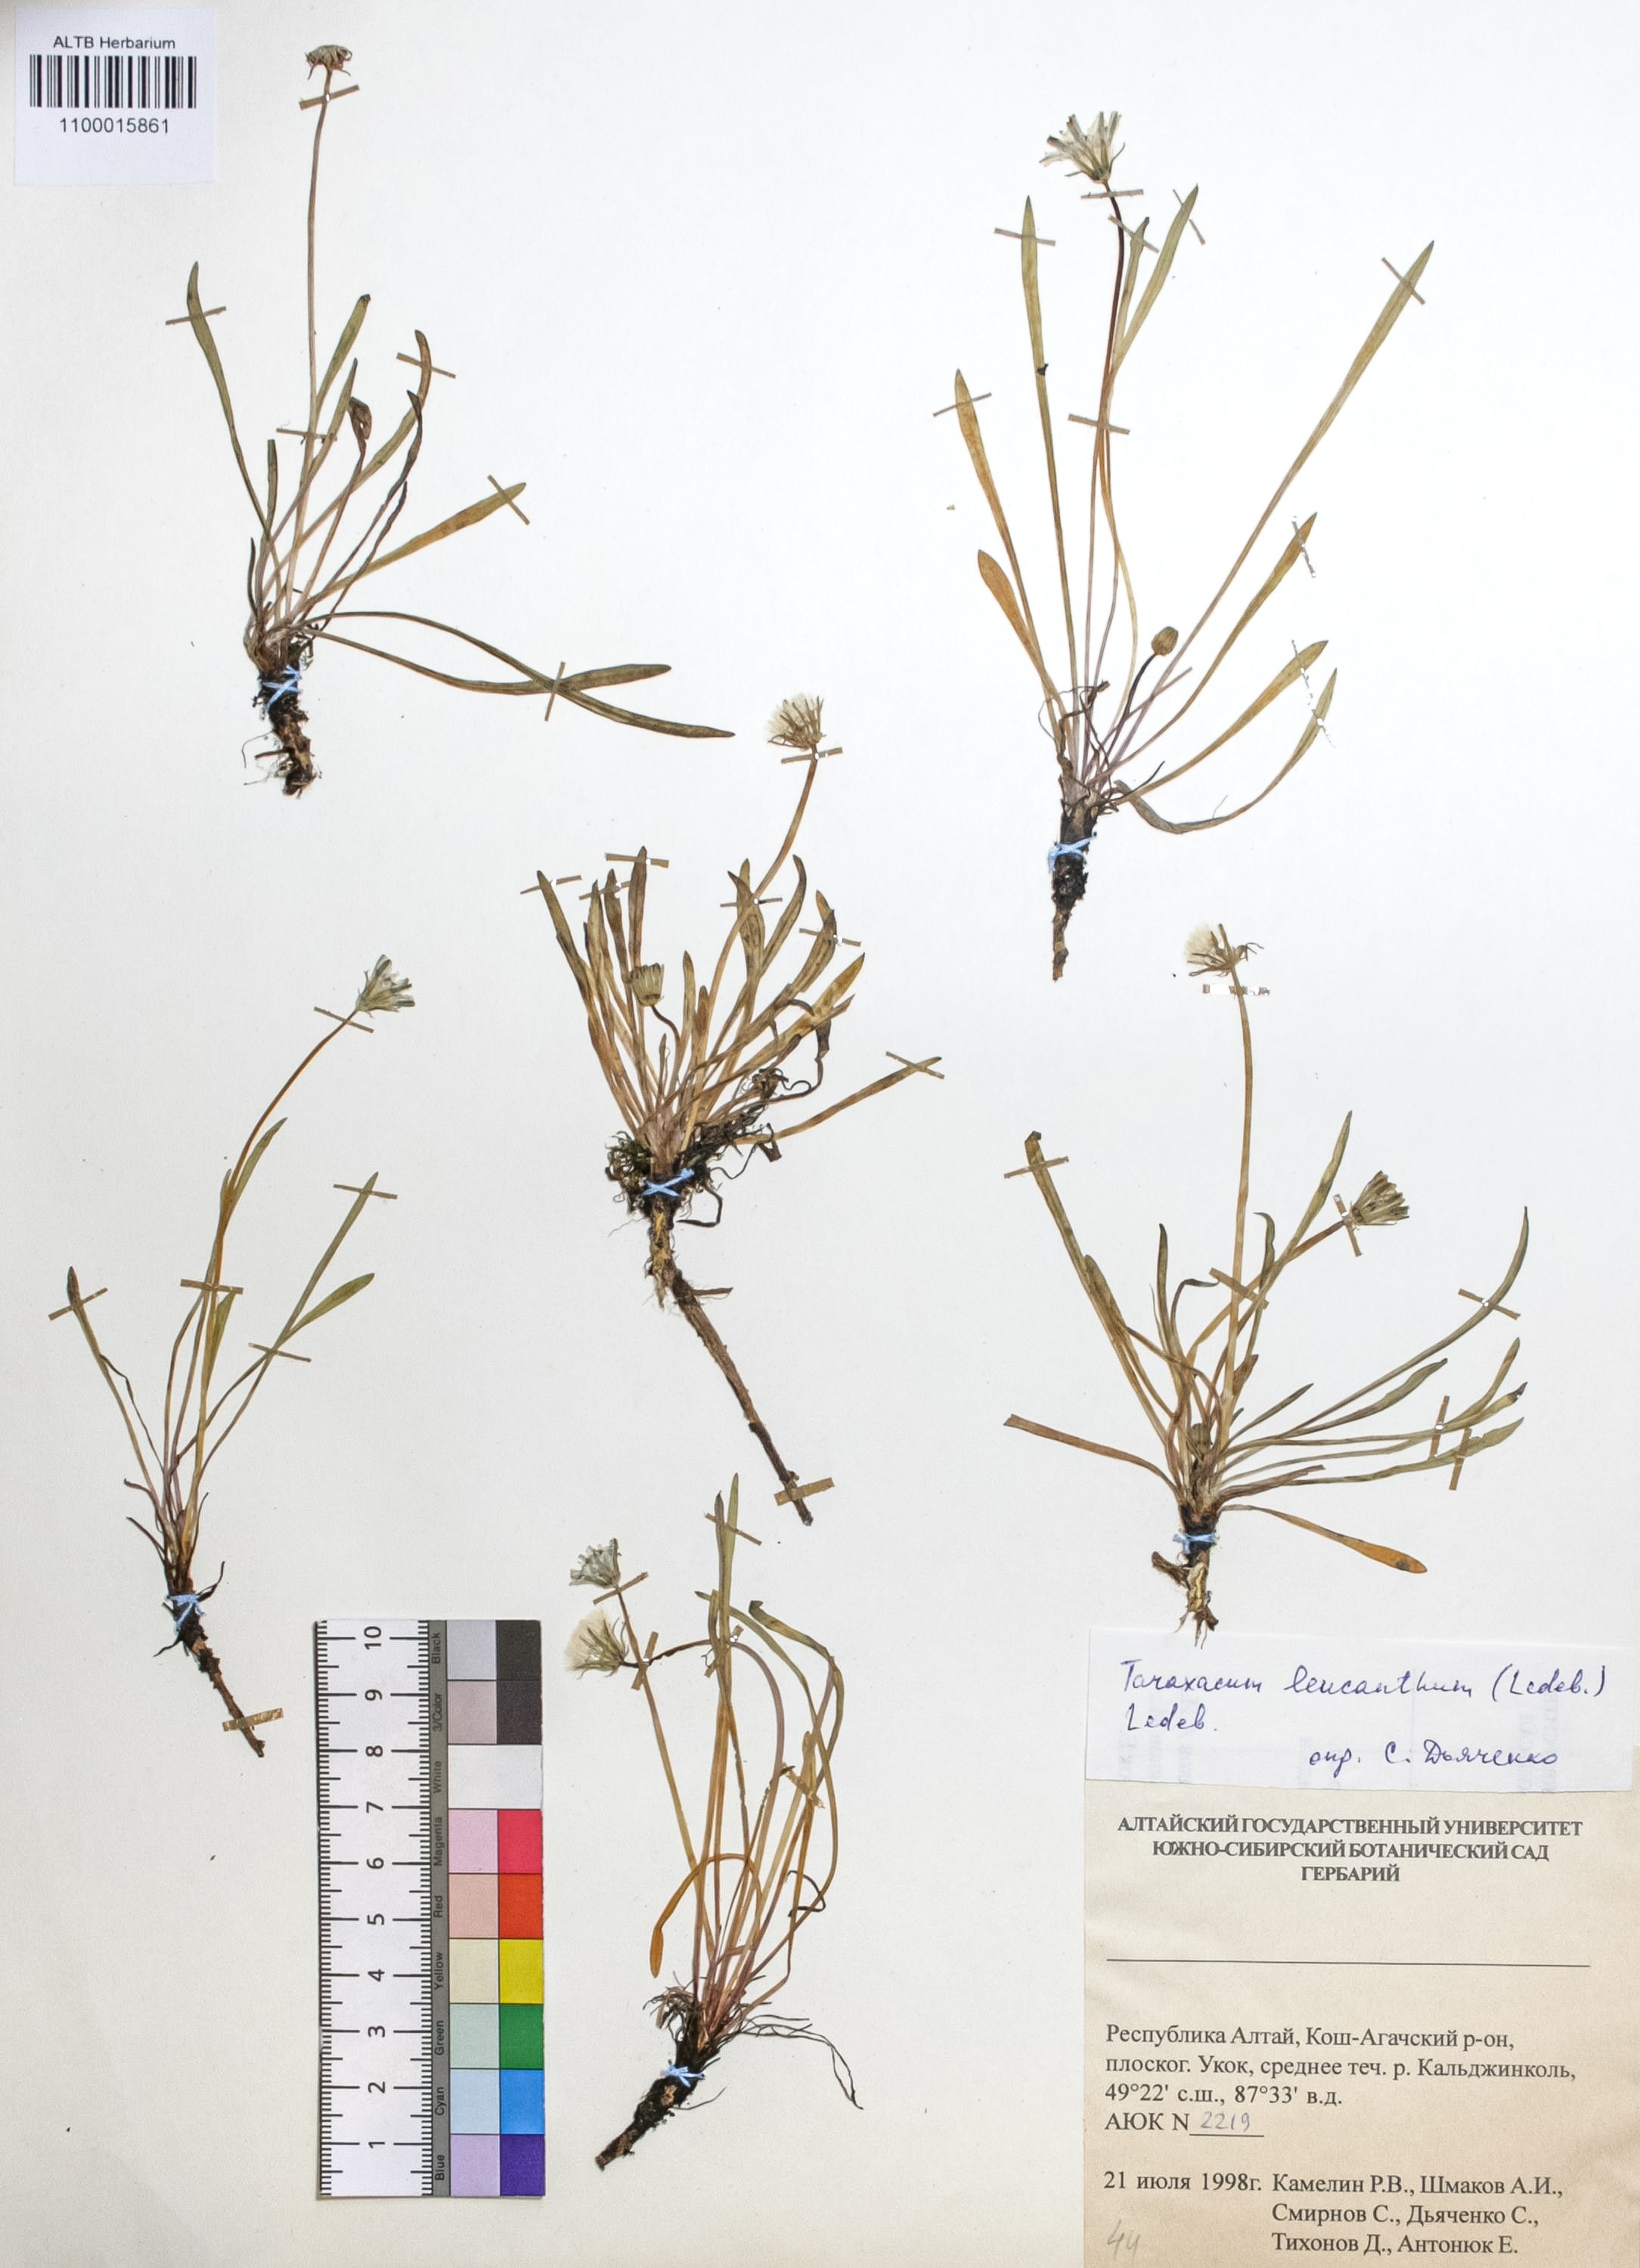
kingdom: Plantae
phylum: Tracheophyta
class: Magnoliopsida
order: Asterales
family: Asteraceae
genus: Taraxacum
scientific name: Taraxacum leucanthum
